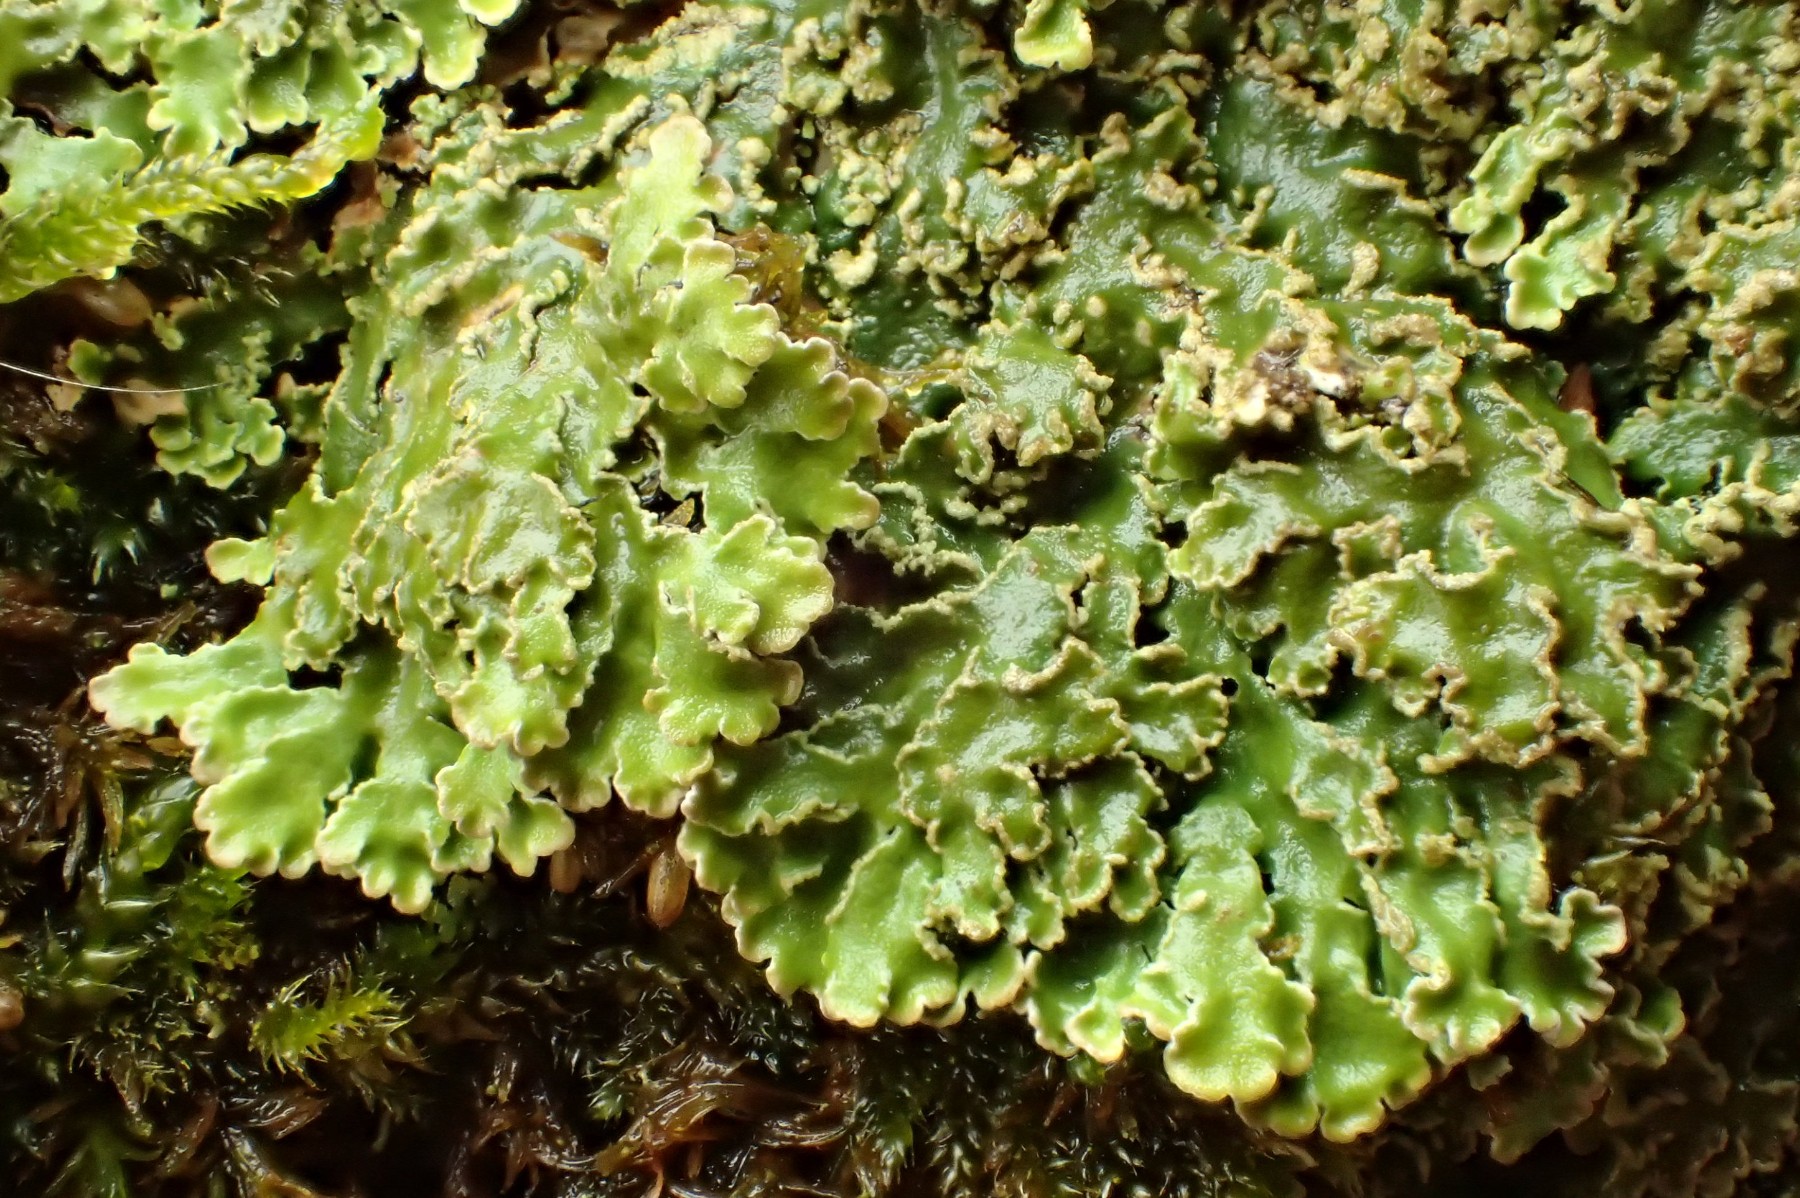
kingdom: Fungi
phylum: Ascomycota
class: Lecanoromycetes
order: Caliciales
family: Physciaceae
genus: Physconia
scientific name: Physconia enteroxantha
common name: grynet dugrosetlav
